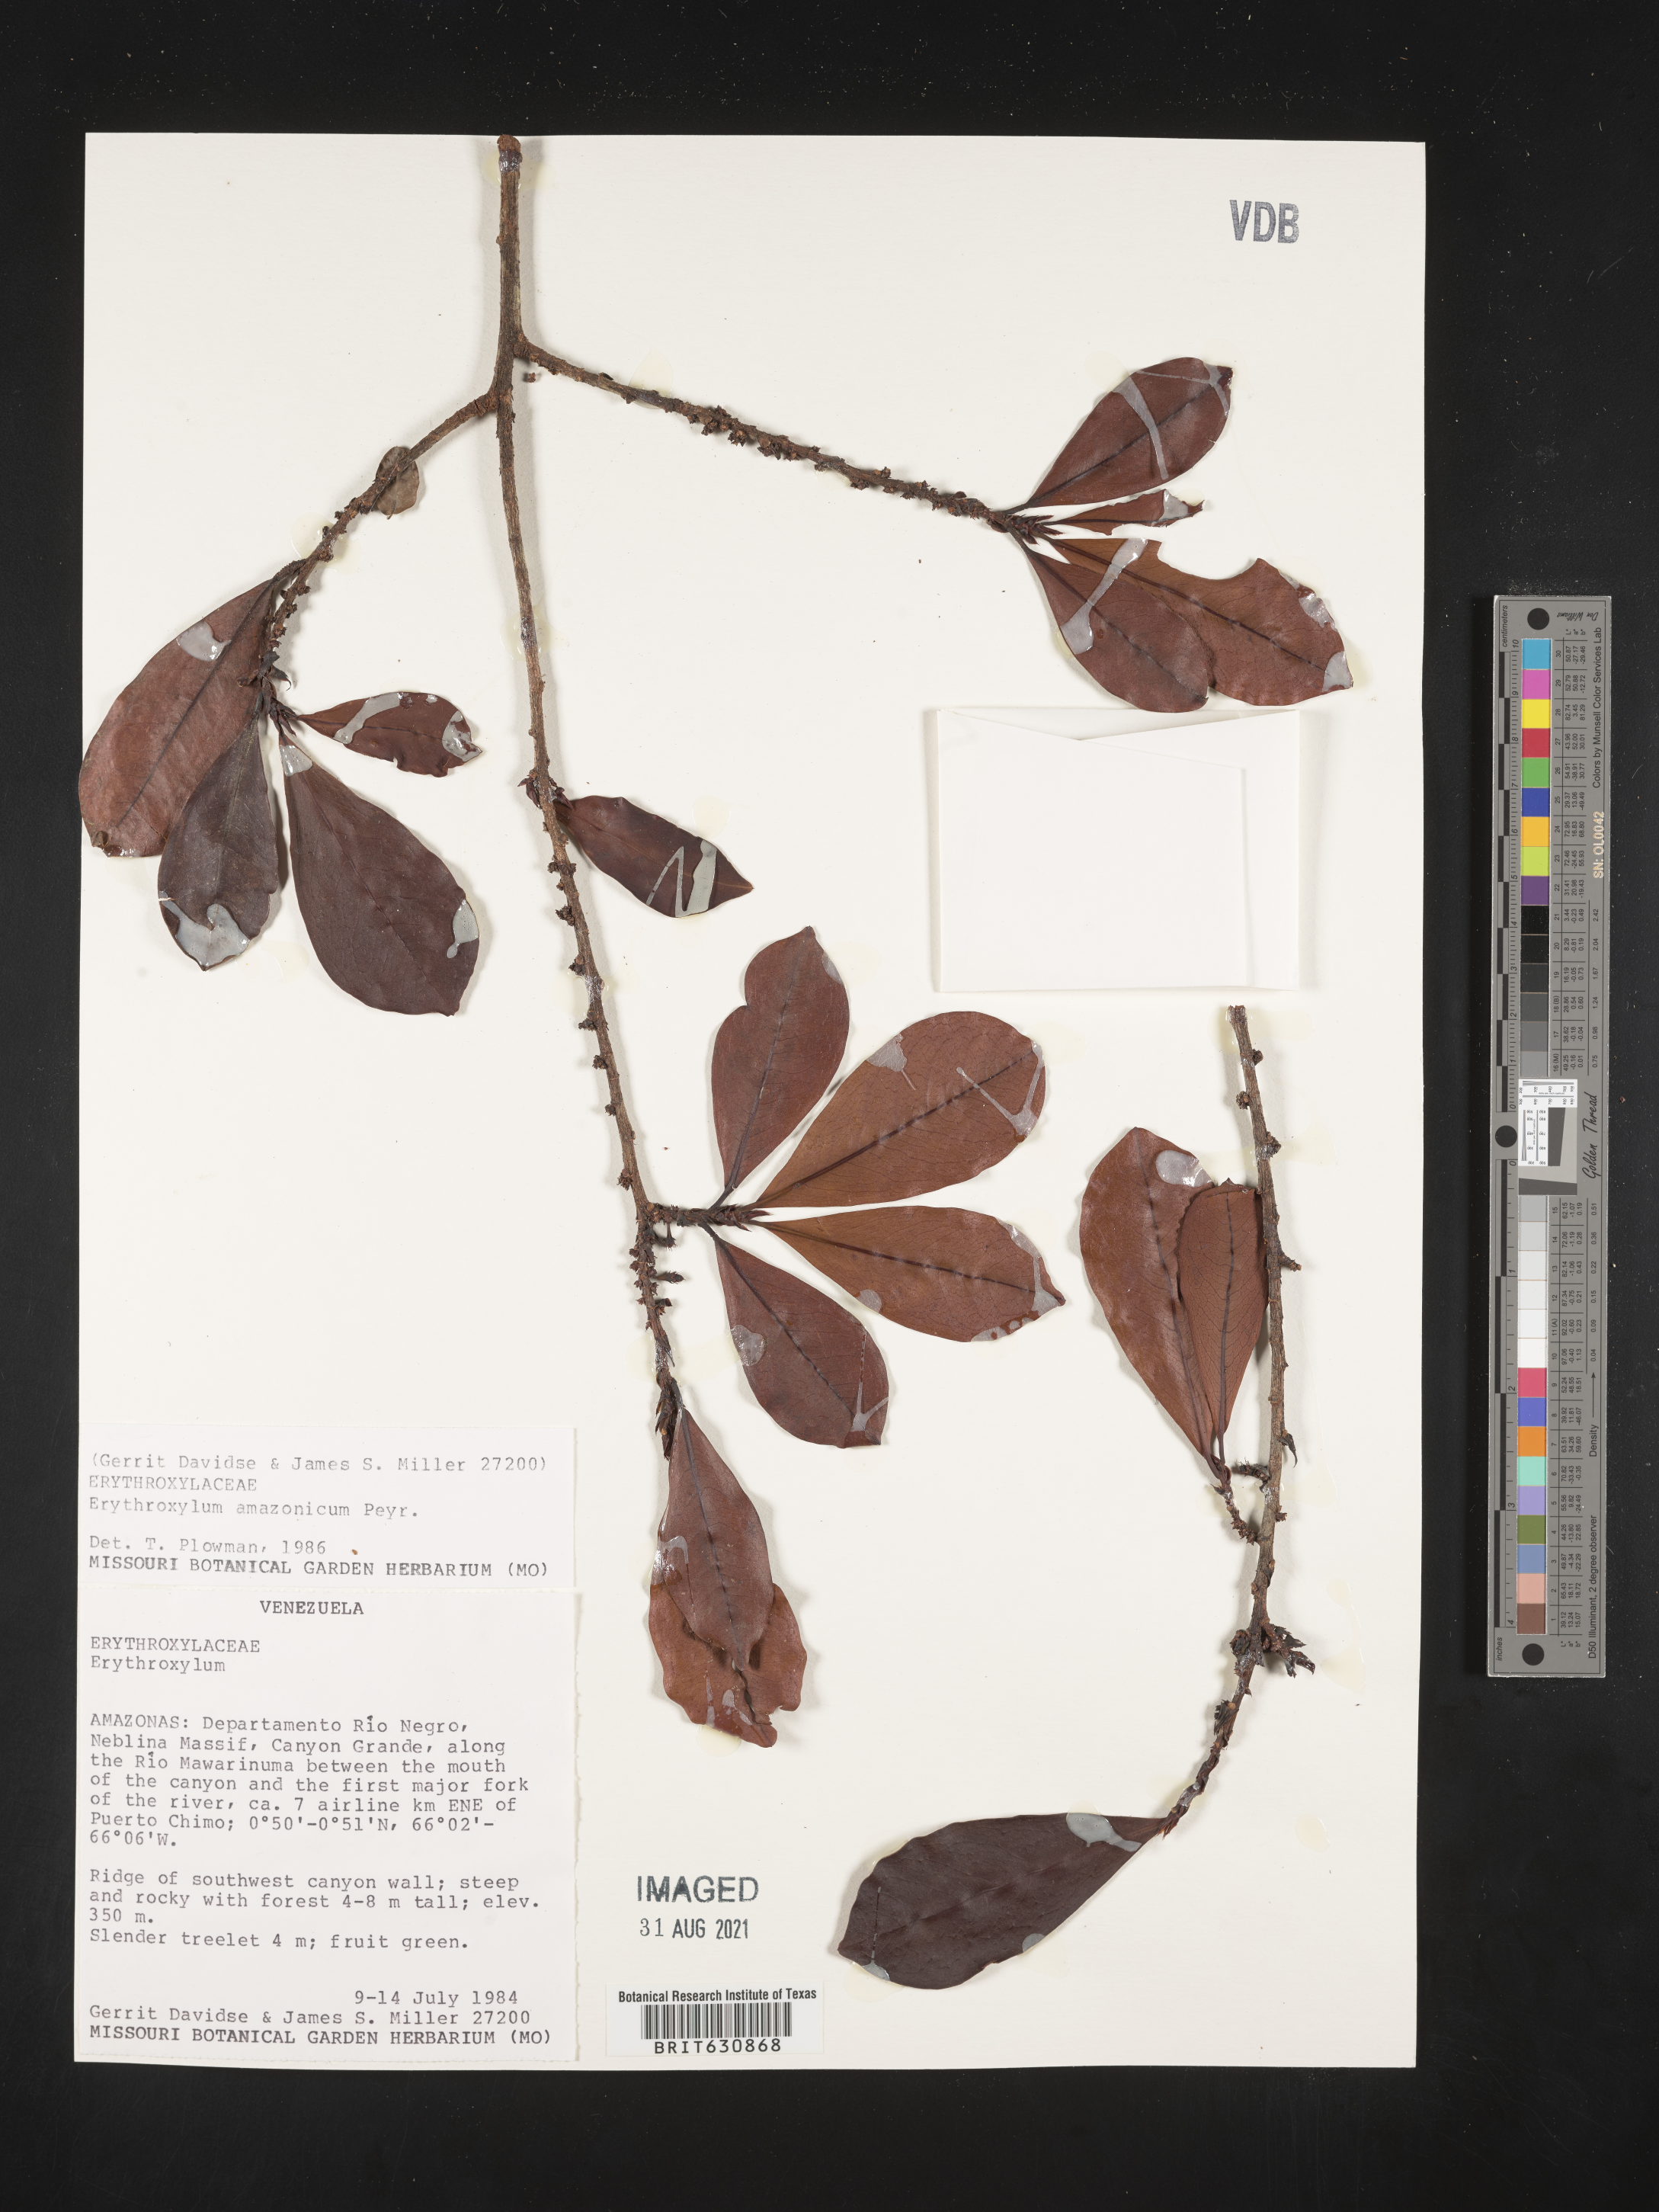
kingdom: Plantae
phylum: Tracheophyta
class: Magnoliopsida
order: Malpighiales
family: Erythroxylaceae
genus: Erythroxylum
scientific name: Erythroxylum
